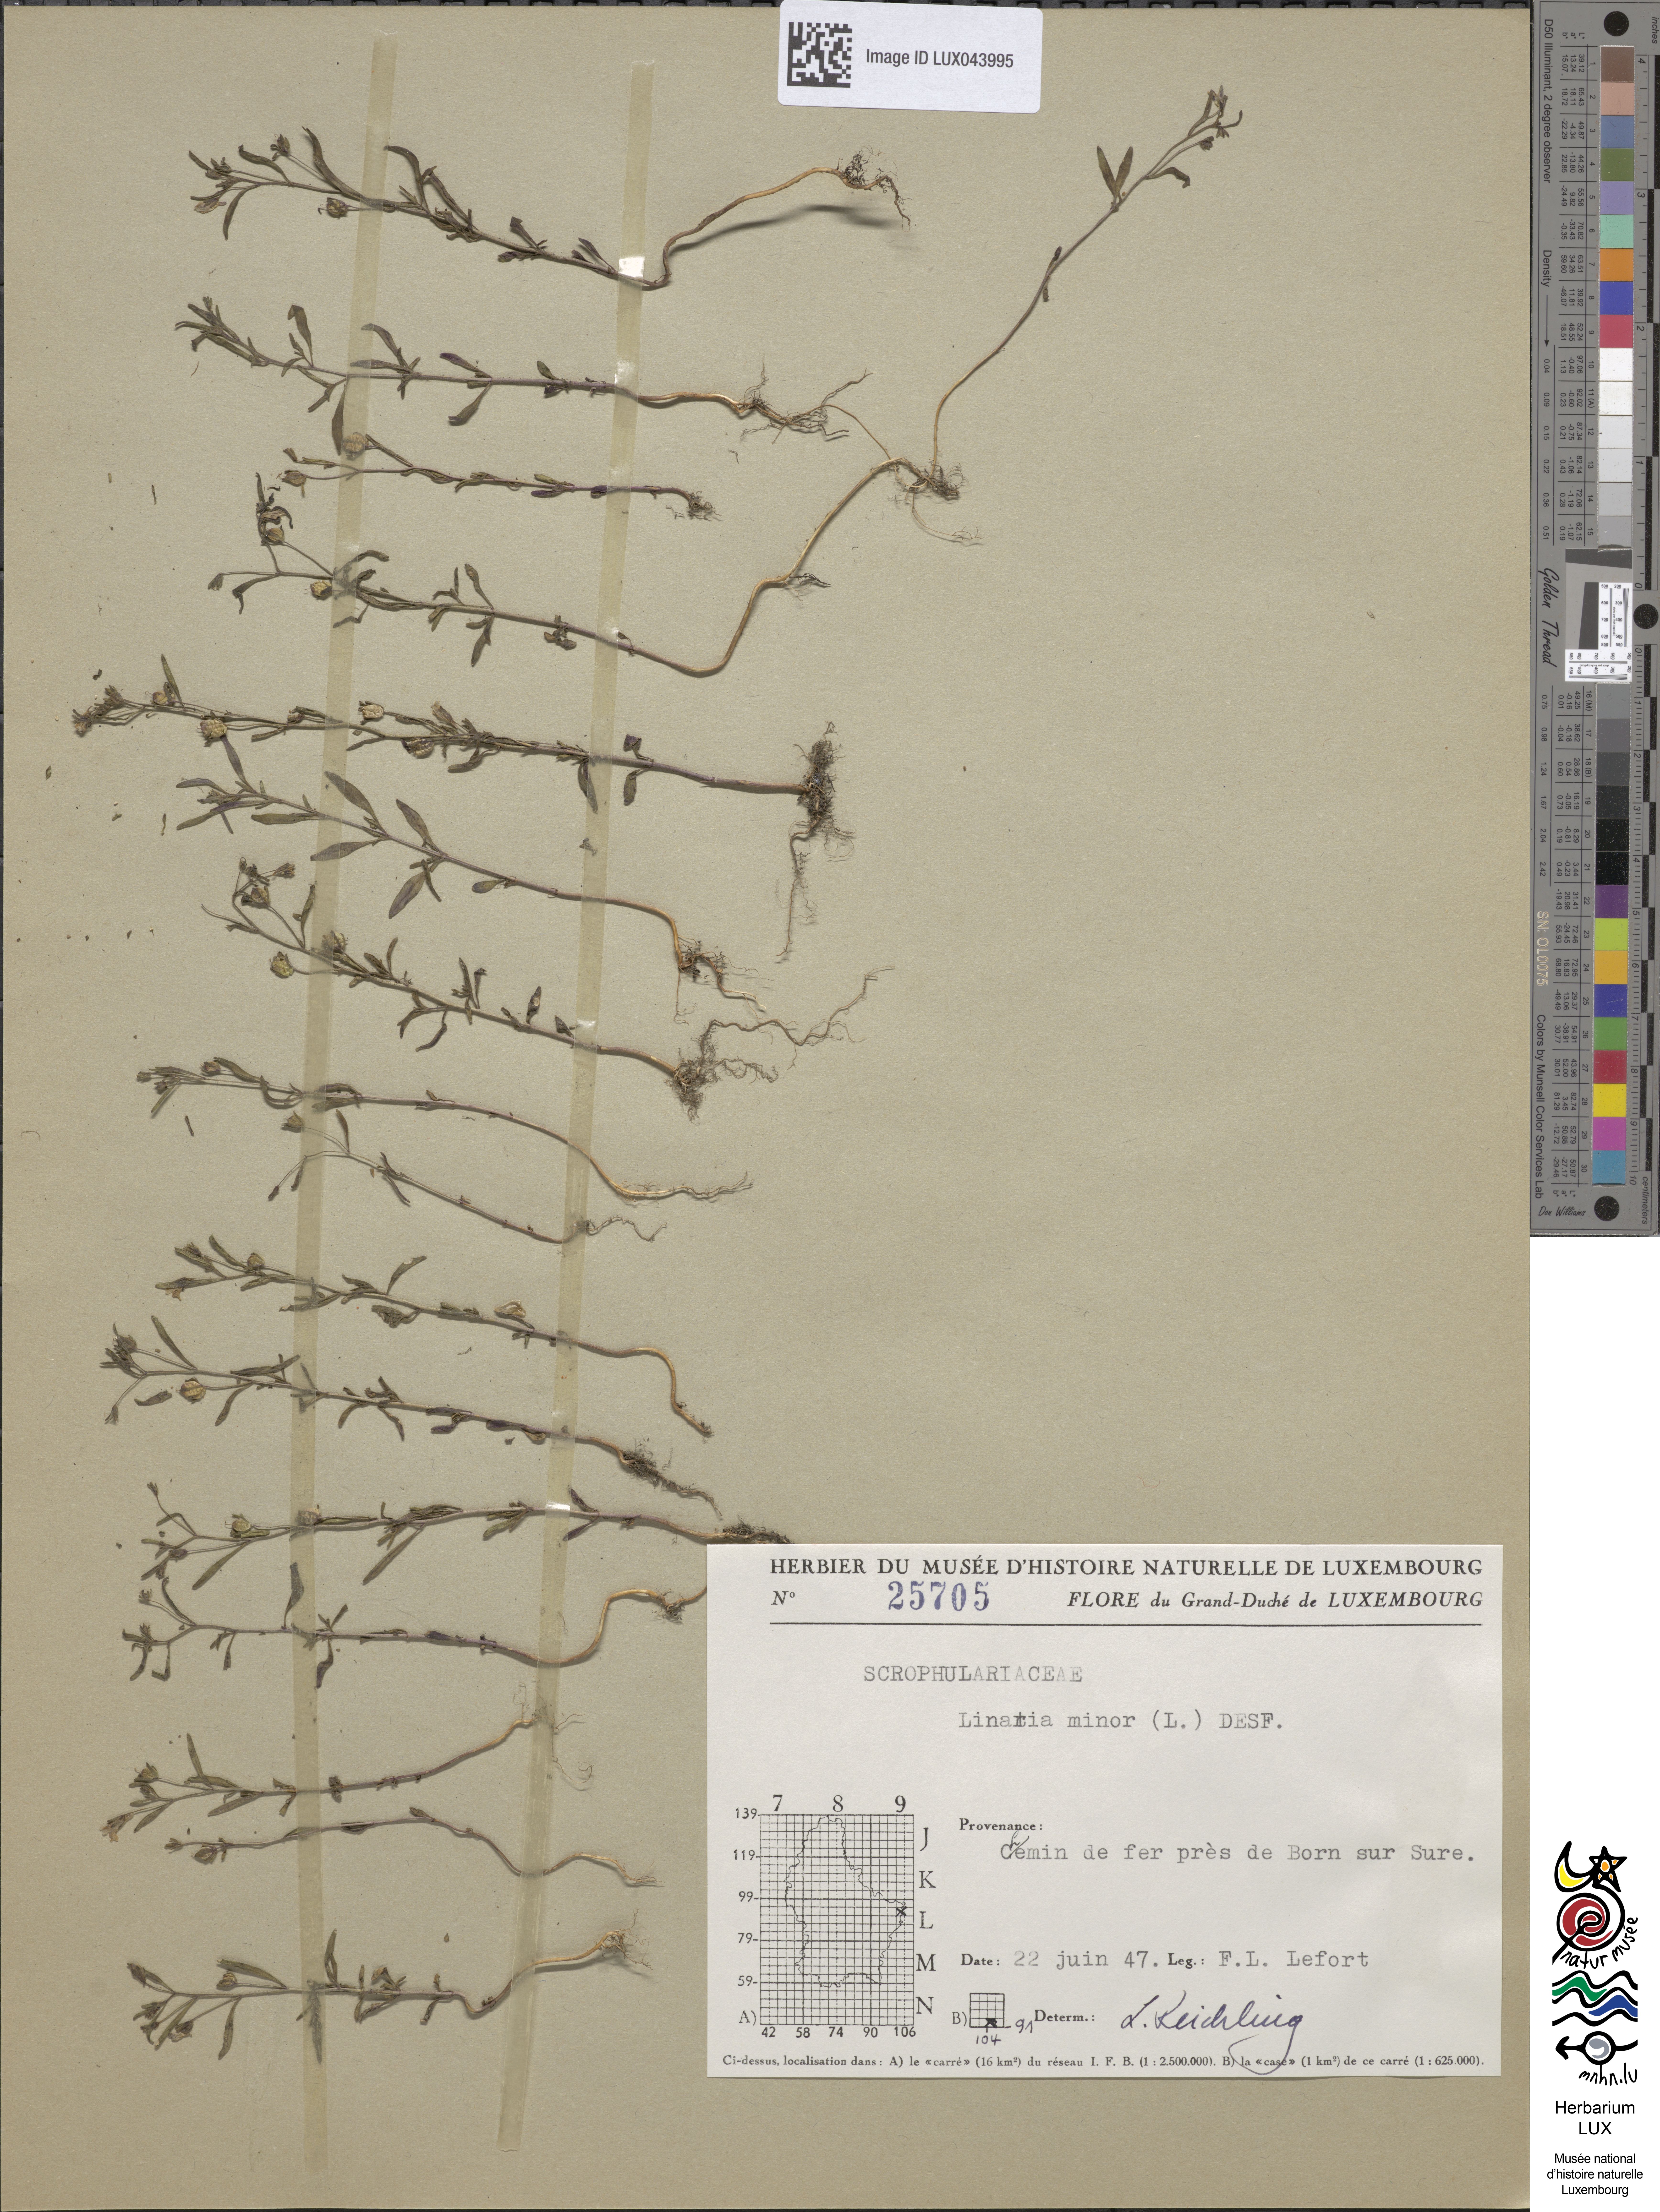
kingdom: Plantae
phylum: Tracheophyta
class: Magnoliopsida
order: Lamiales
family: Plantaginaceae
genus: Chaenorhinum
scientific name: Chaenorhinum minus
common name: Dwarf snapdragon
